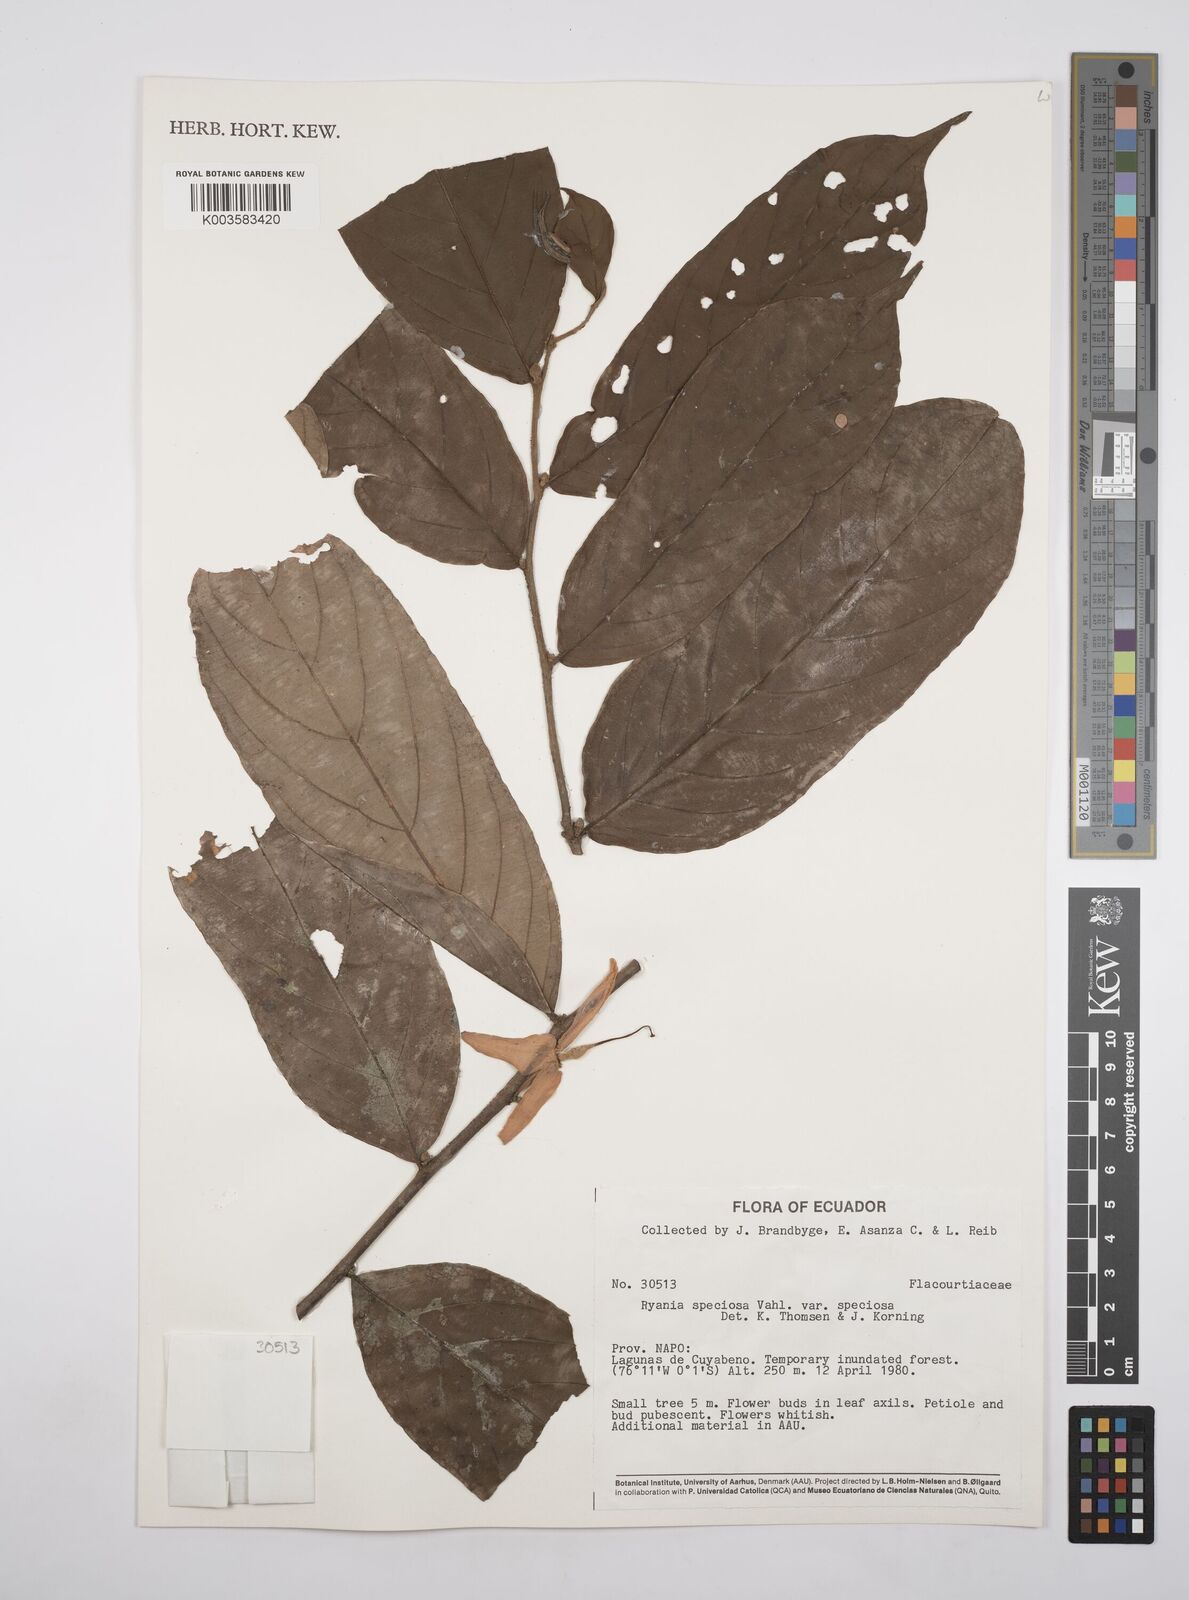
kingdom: Plantae
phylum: Tracheophyta
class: Magnoliopsida
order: Malpighiales
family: Salicaceae
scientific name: Salicaceae
